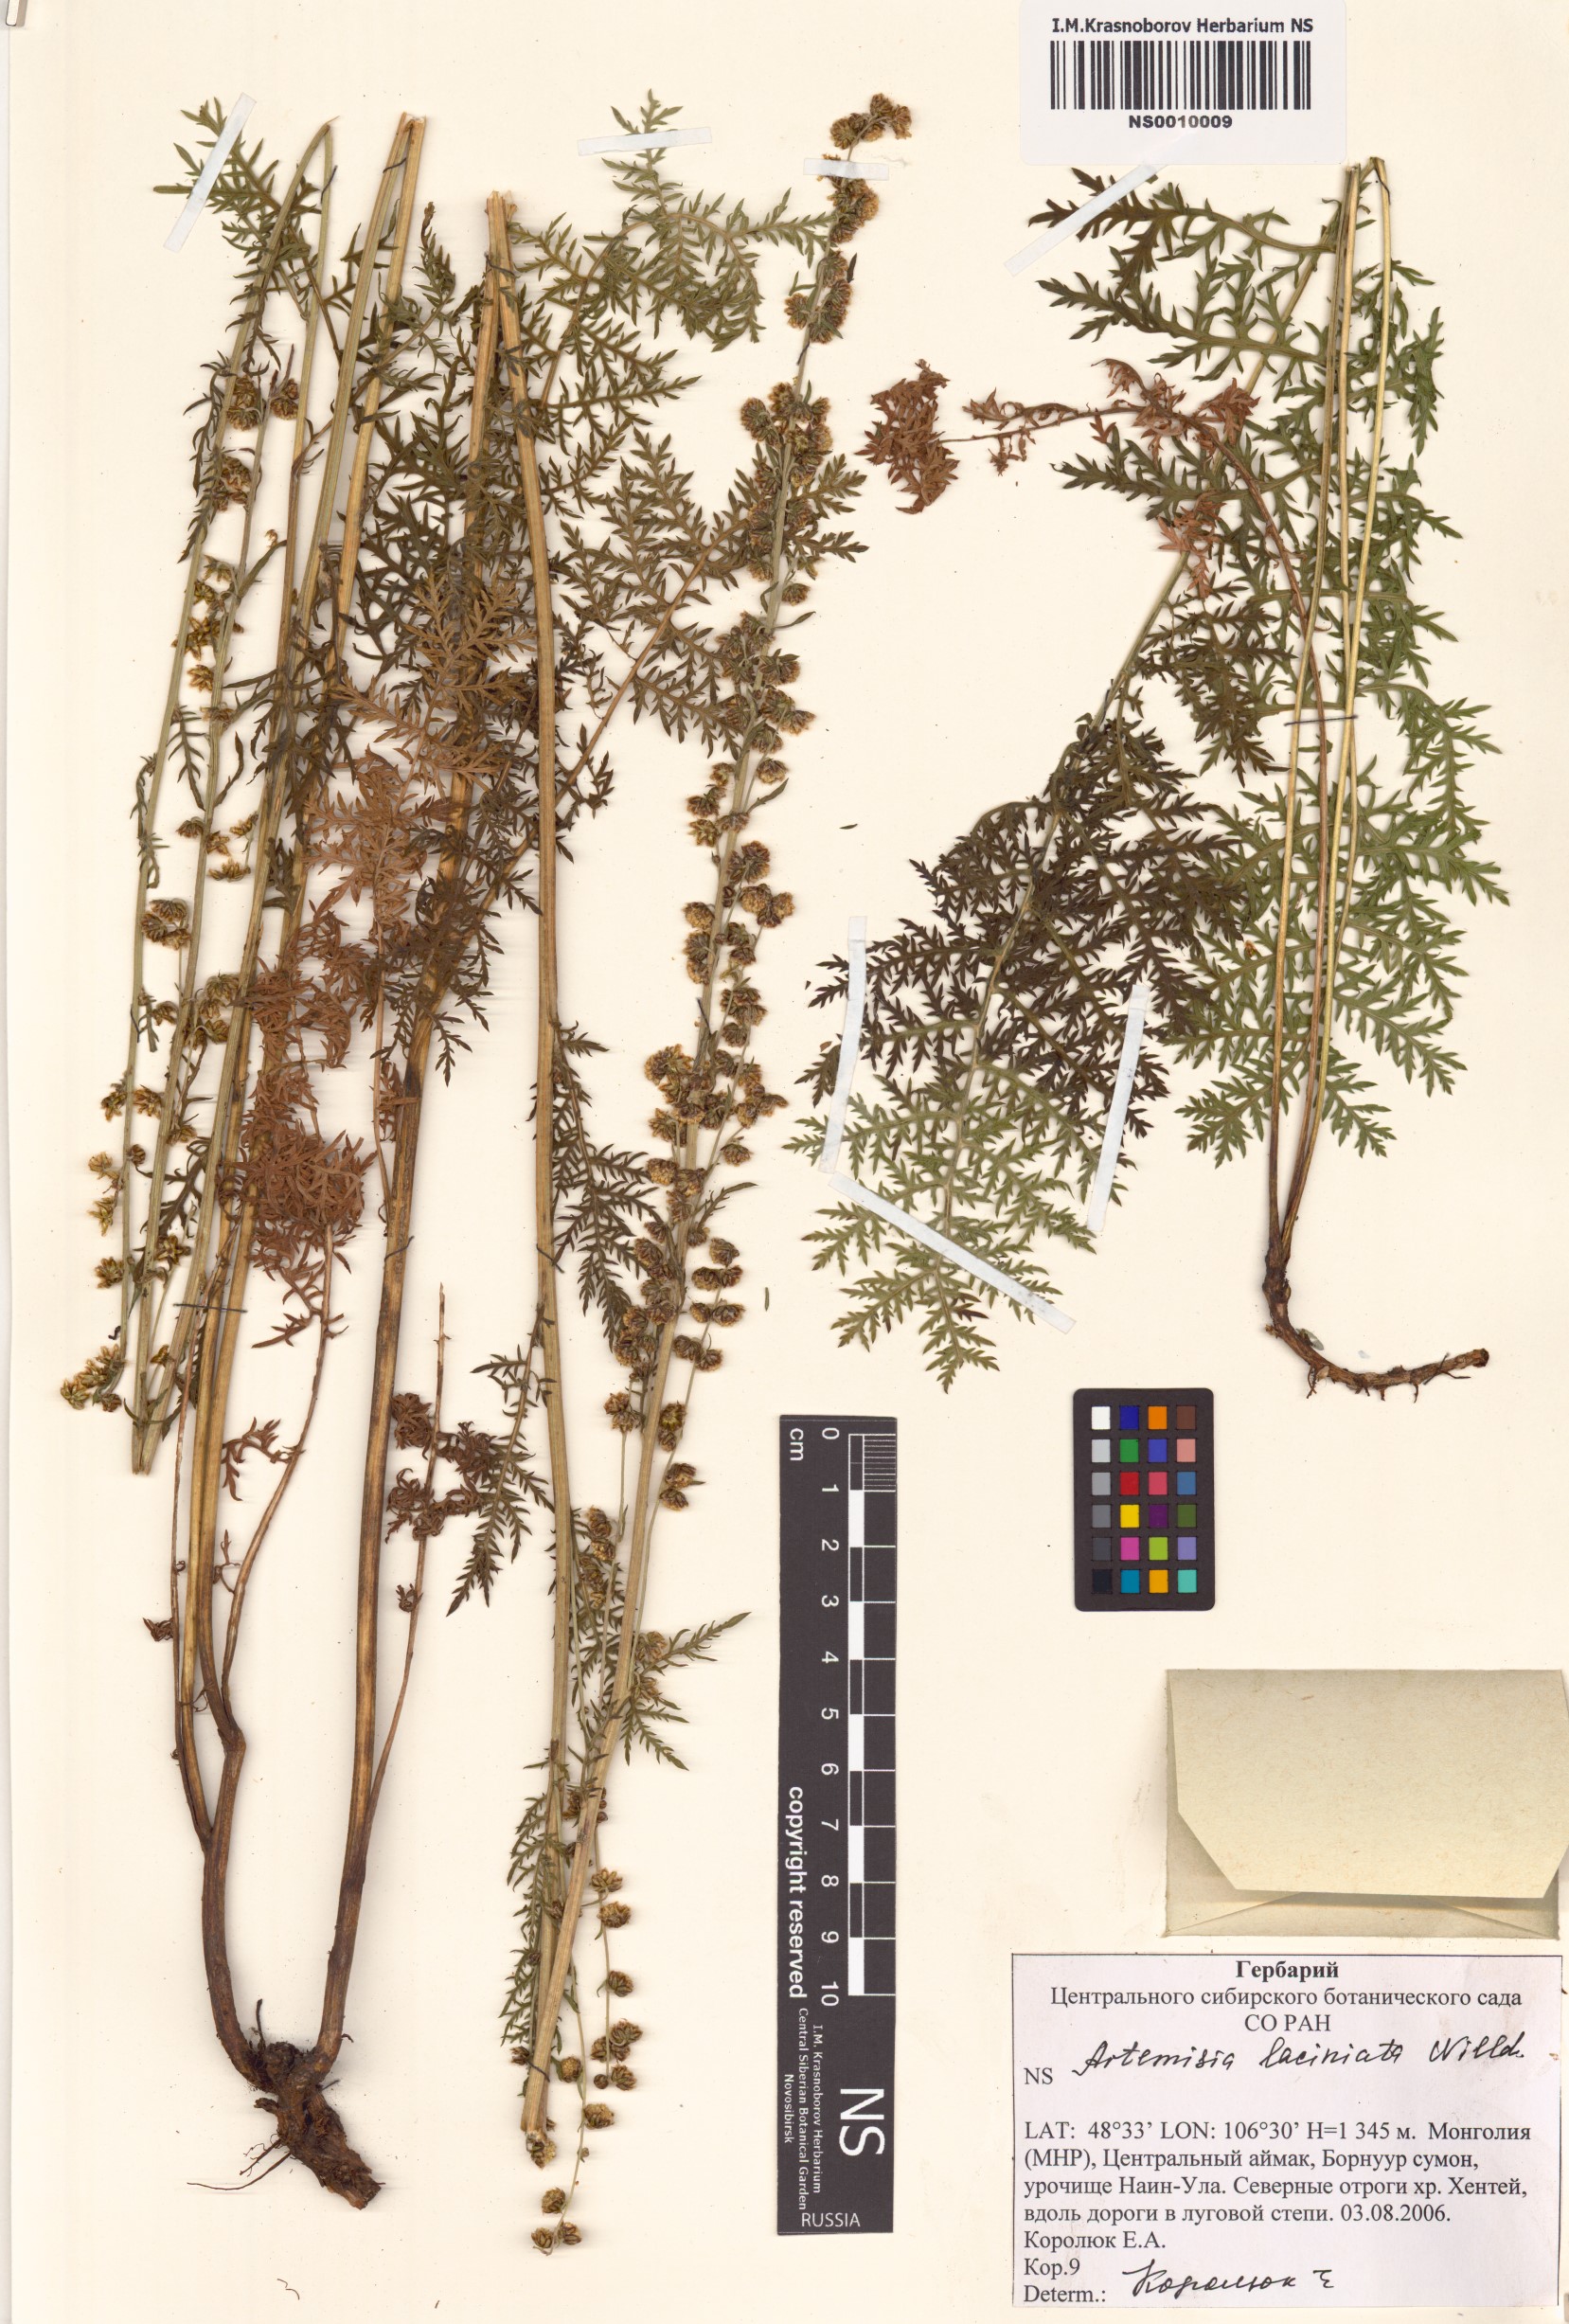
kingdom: Plantae
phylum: Tracheophyta
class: Magnoliopsida
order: Asterales
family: Asteraceae
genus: Artemisia
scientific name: Artemisia laciniata
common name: Siberian wormwood
